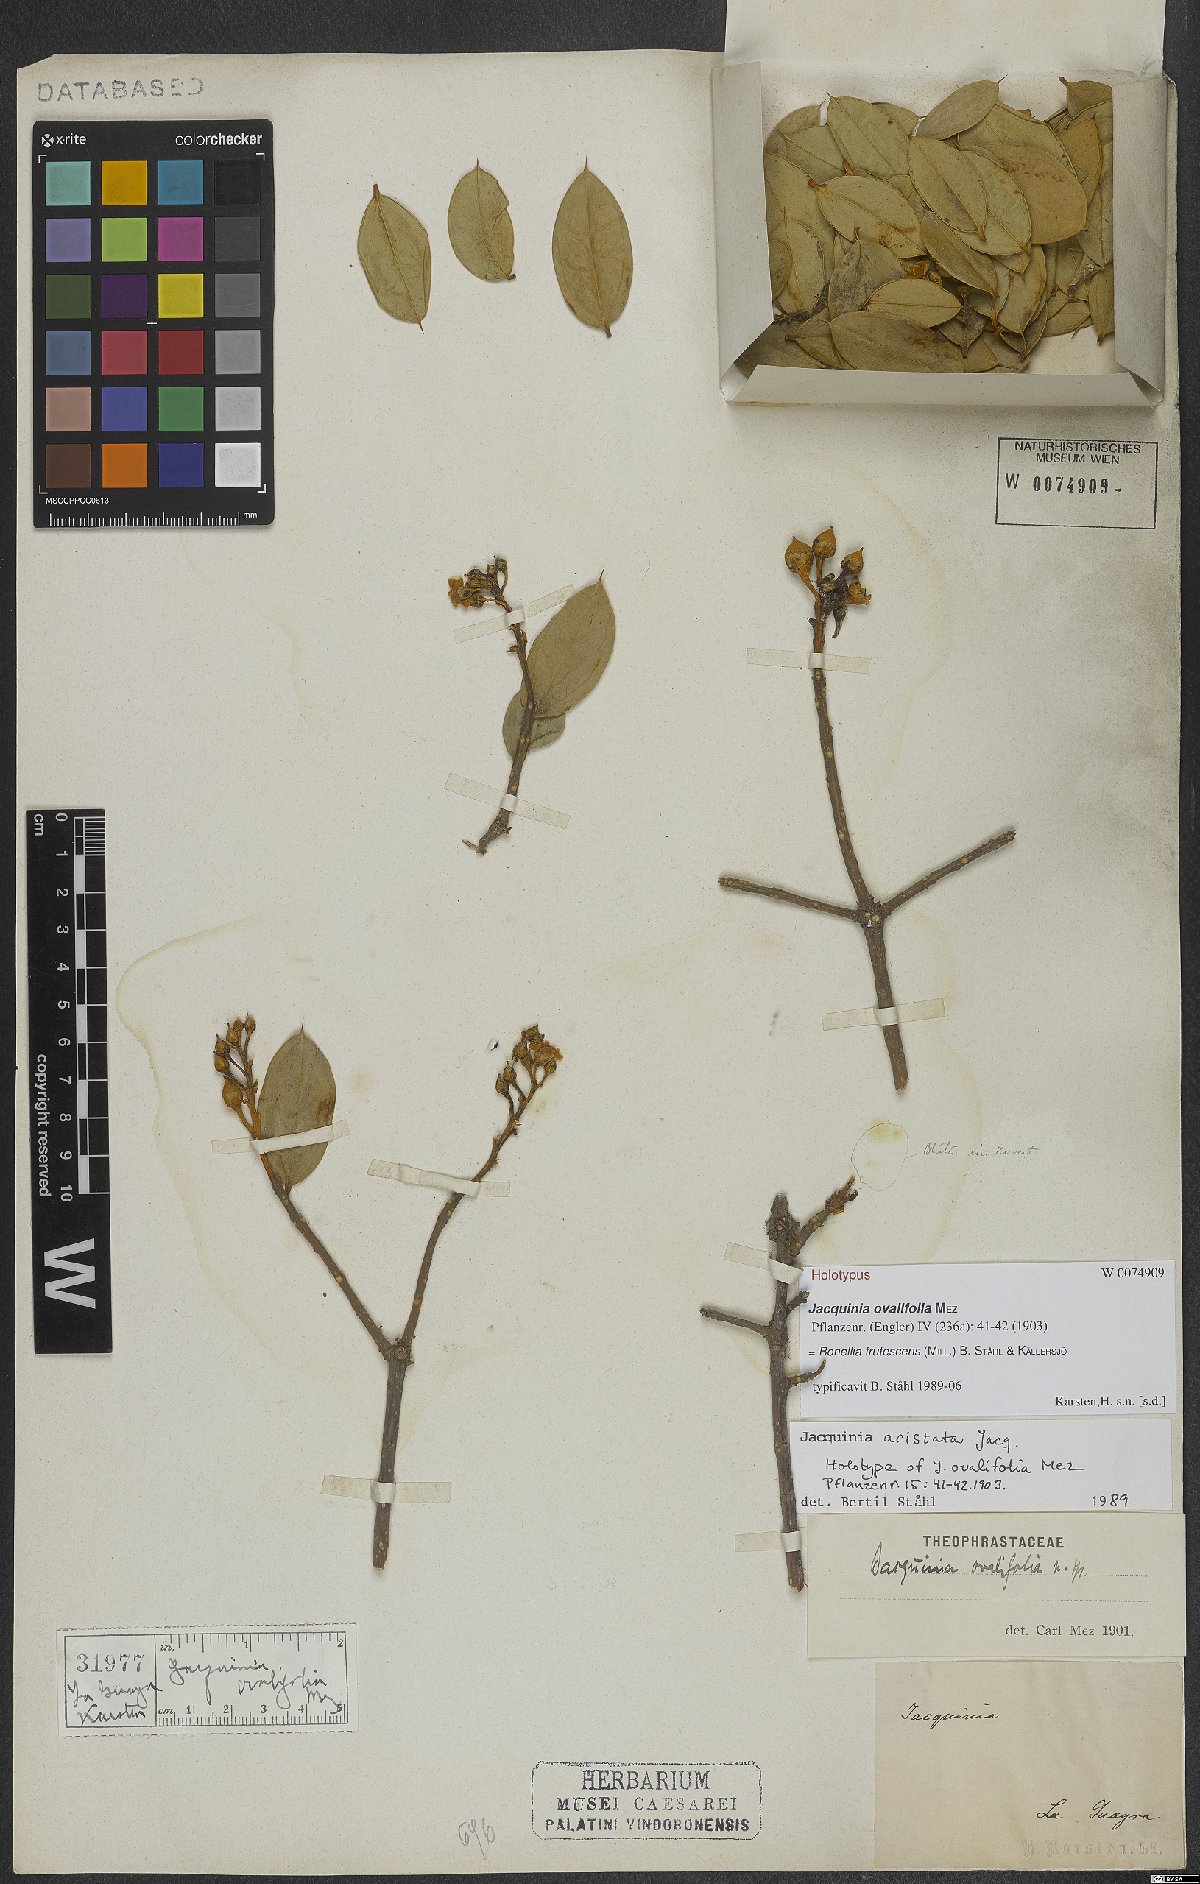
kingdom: Plantae
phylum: Tracheophyta
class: Magnoliopsida
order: Ericales
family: Primulaceae
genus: Bonellia
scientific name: Bonellia frutescens
